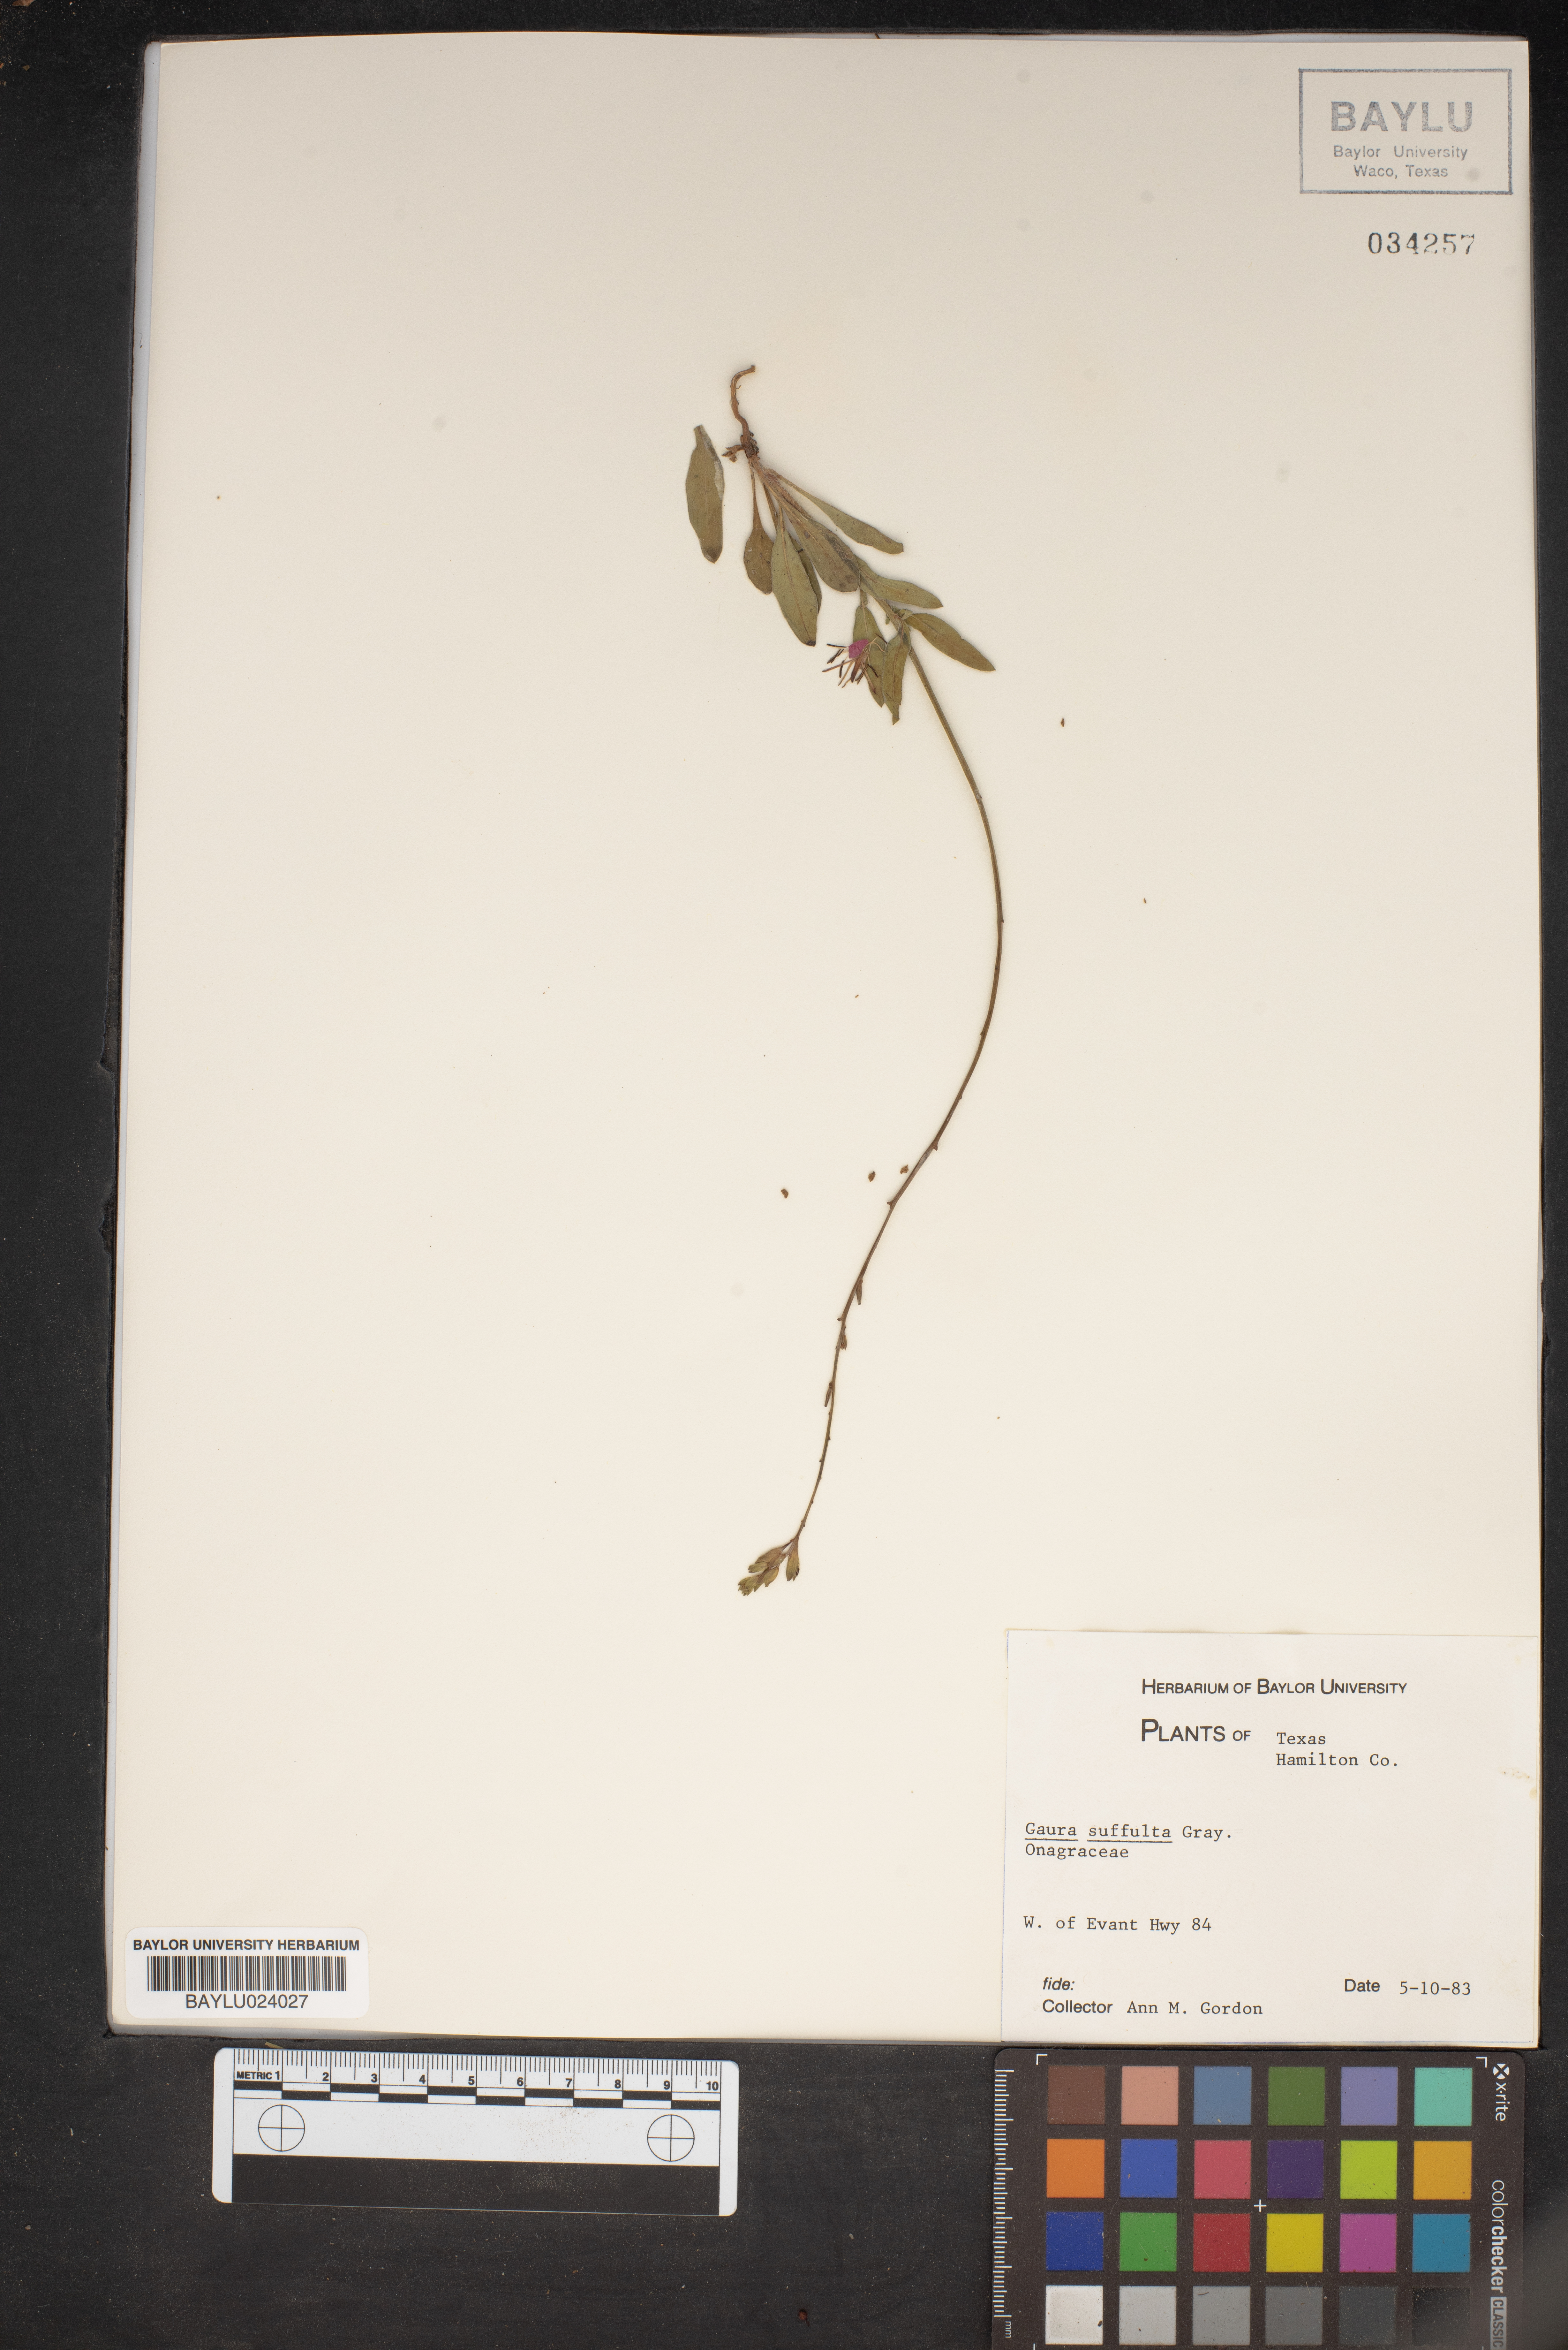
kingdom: Plantae
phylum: Tracheophyta
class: Magnoliopsida
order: Myrtales
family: Onagraceae
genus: Oenothera
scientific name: Oenothera Gaura suffulta
